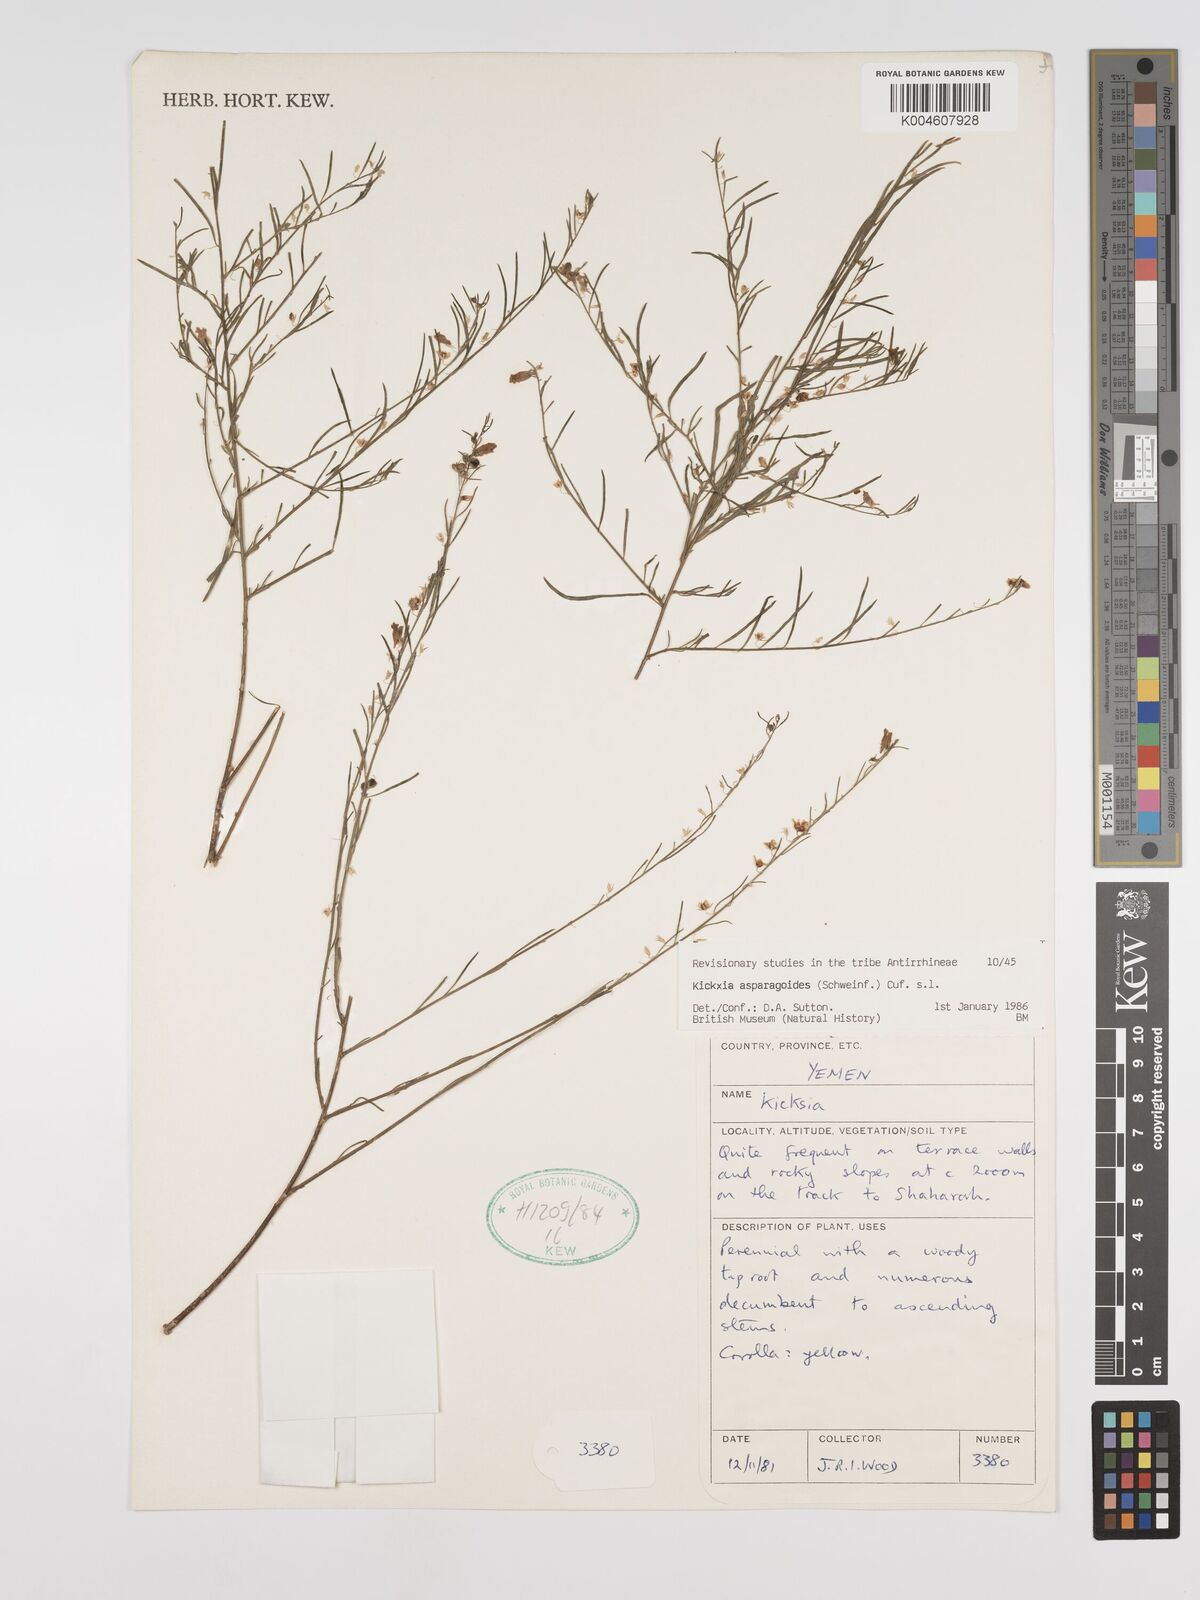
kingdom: Plantae
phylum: Tracheophyta
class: Magnoliopsida
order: Lamiales
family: Plantaginaceae
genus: Nanorrhinum
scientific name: Nanorrhinum asparagoides
